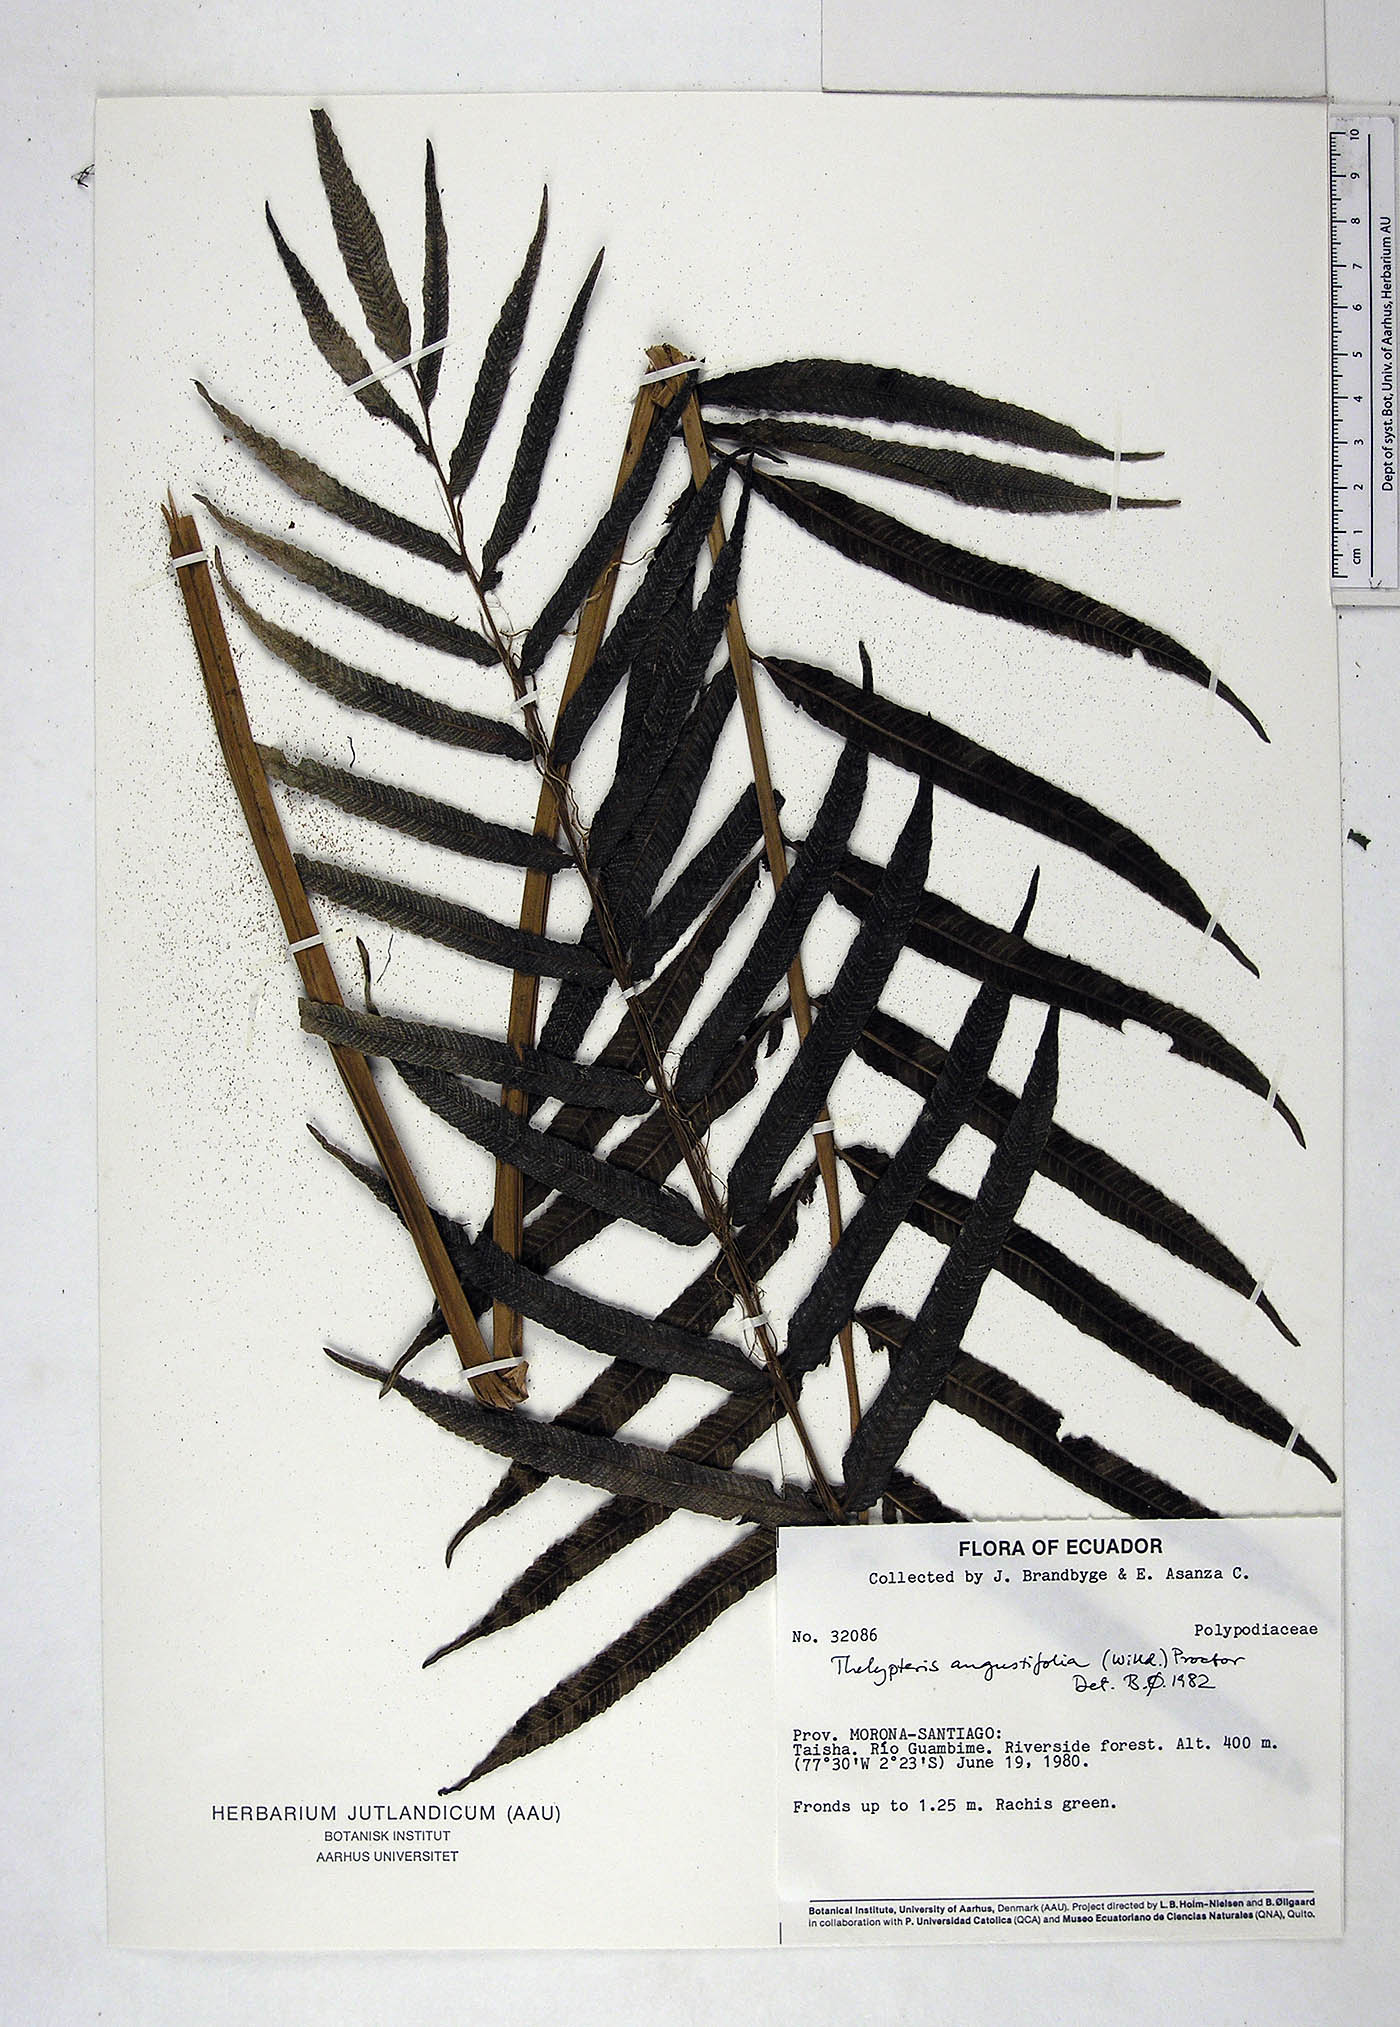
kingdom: Plantae
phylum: Tracheophyta
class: Polypodiopsida
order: Polypodiales
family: Thelypteridaceae
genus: Meniscium
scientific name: Meniscium angustifolium
